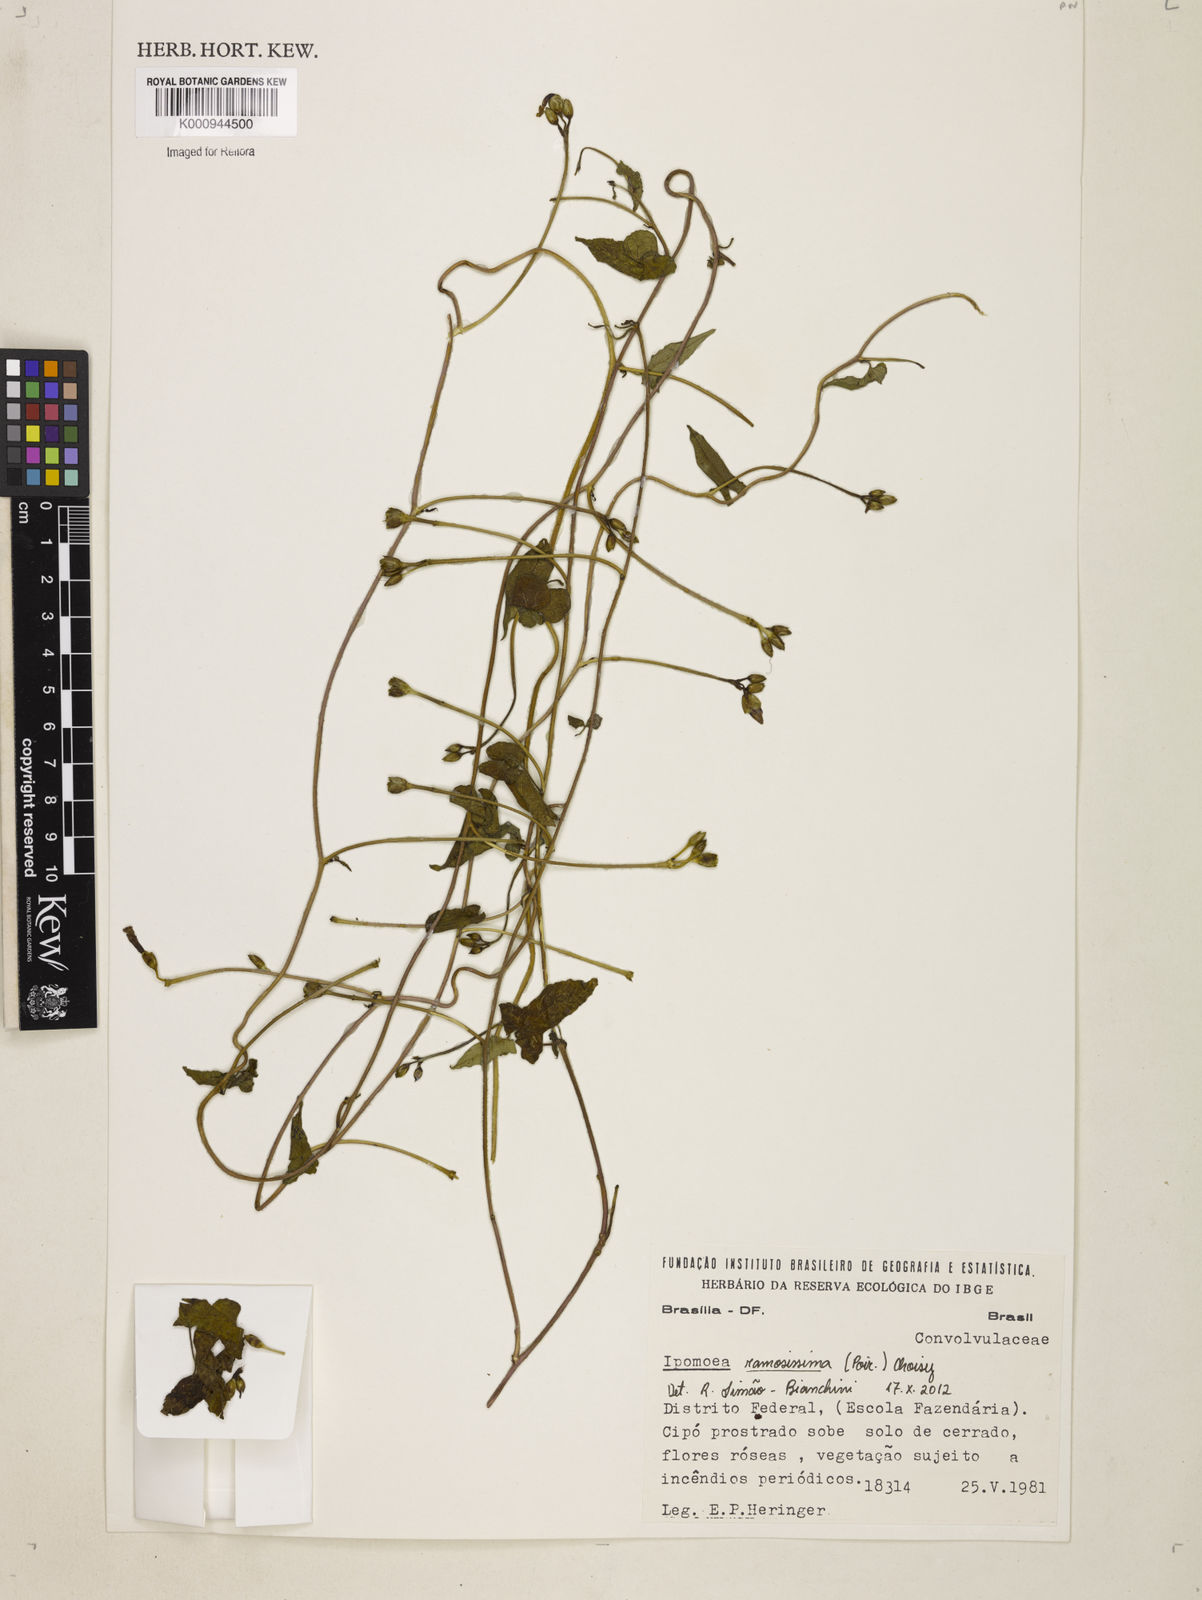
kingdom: Plantae
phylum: Tracheophyta
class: Magnoliopsida
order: Solanales
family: Convolvulaceae
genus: Ipomoea
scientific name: Ipomoea ramosissima
